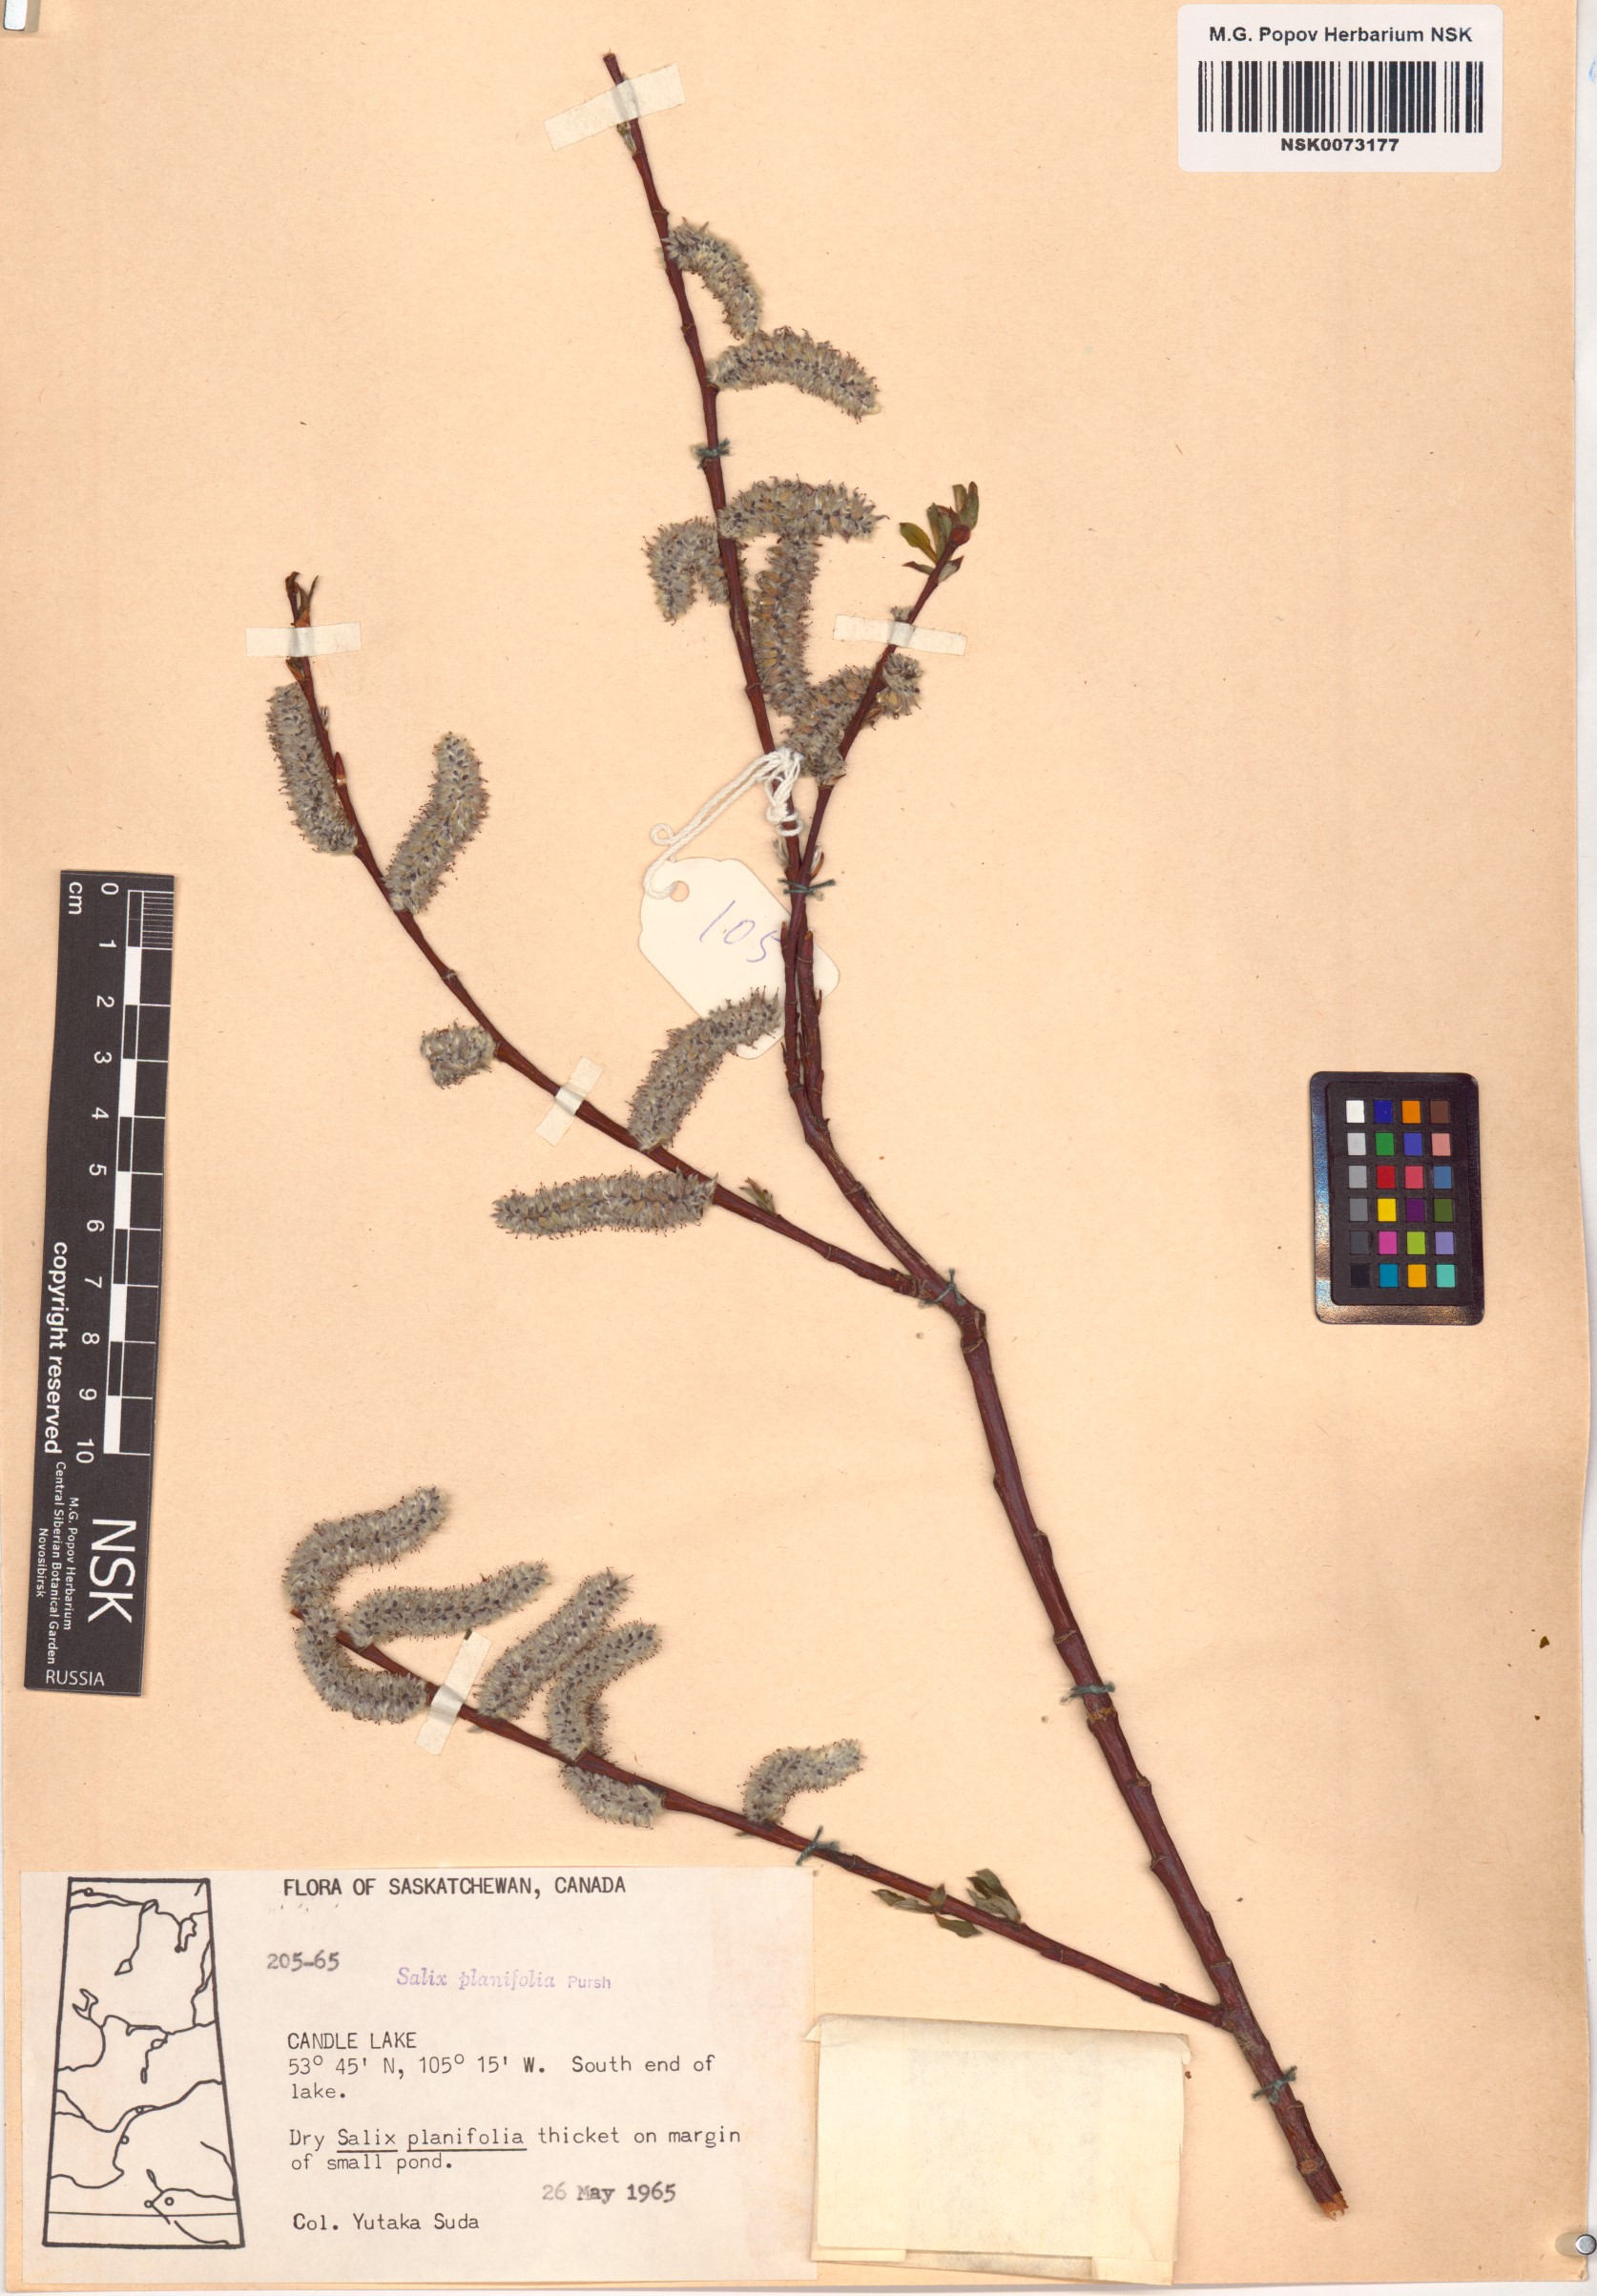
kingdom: Plantae
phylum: Tracheophyta
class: Magnoliopsida
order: Malpighiales
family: Salicaceae
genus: Salix
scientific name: Salix planifolia
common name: Mountain willow
